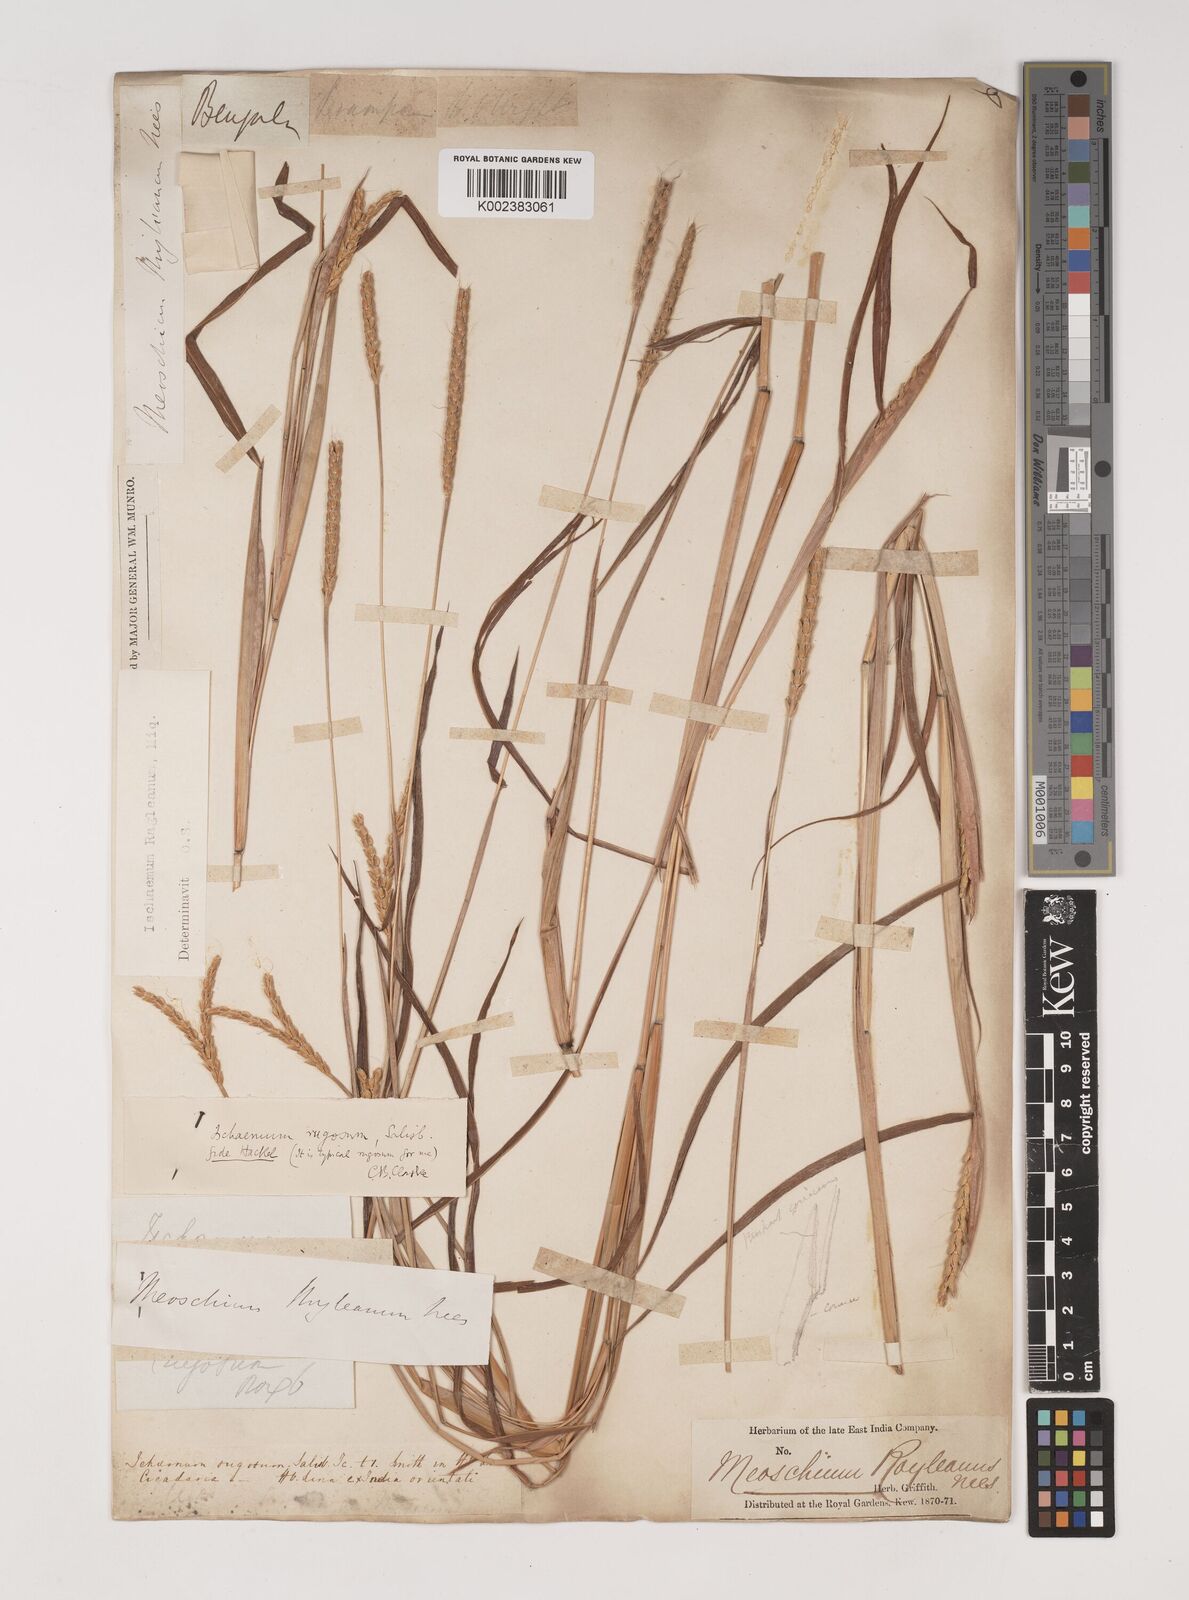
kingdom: Plantae
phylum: Tracheophyta
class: Liliopsida
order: Poales
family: Poaceae
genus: Ischaemum
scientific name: Ischaemum rugosum
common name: Saramatta grass
